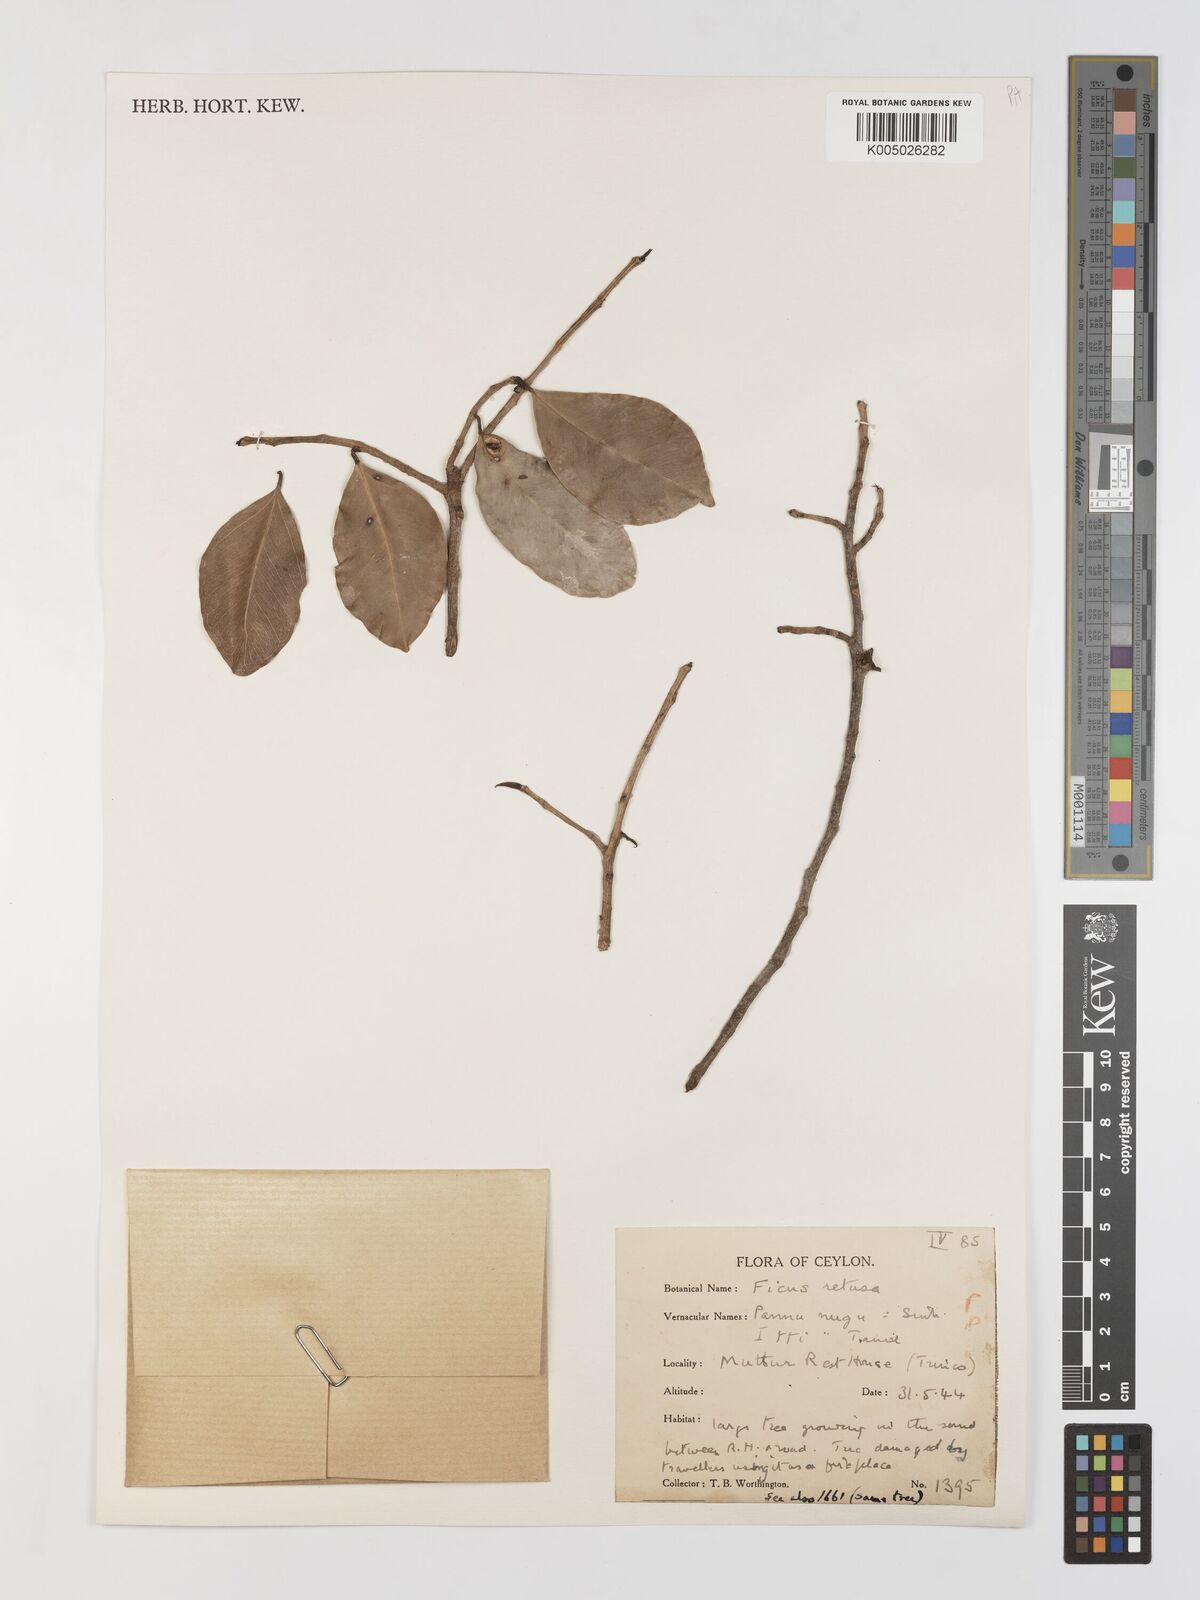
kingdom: Plantae
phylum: Tracheophyta
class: Magnoliopsida
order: Rosales
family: Moraceae
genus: Ficus
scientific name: Ficus
